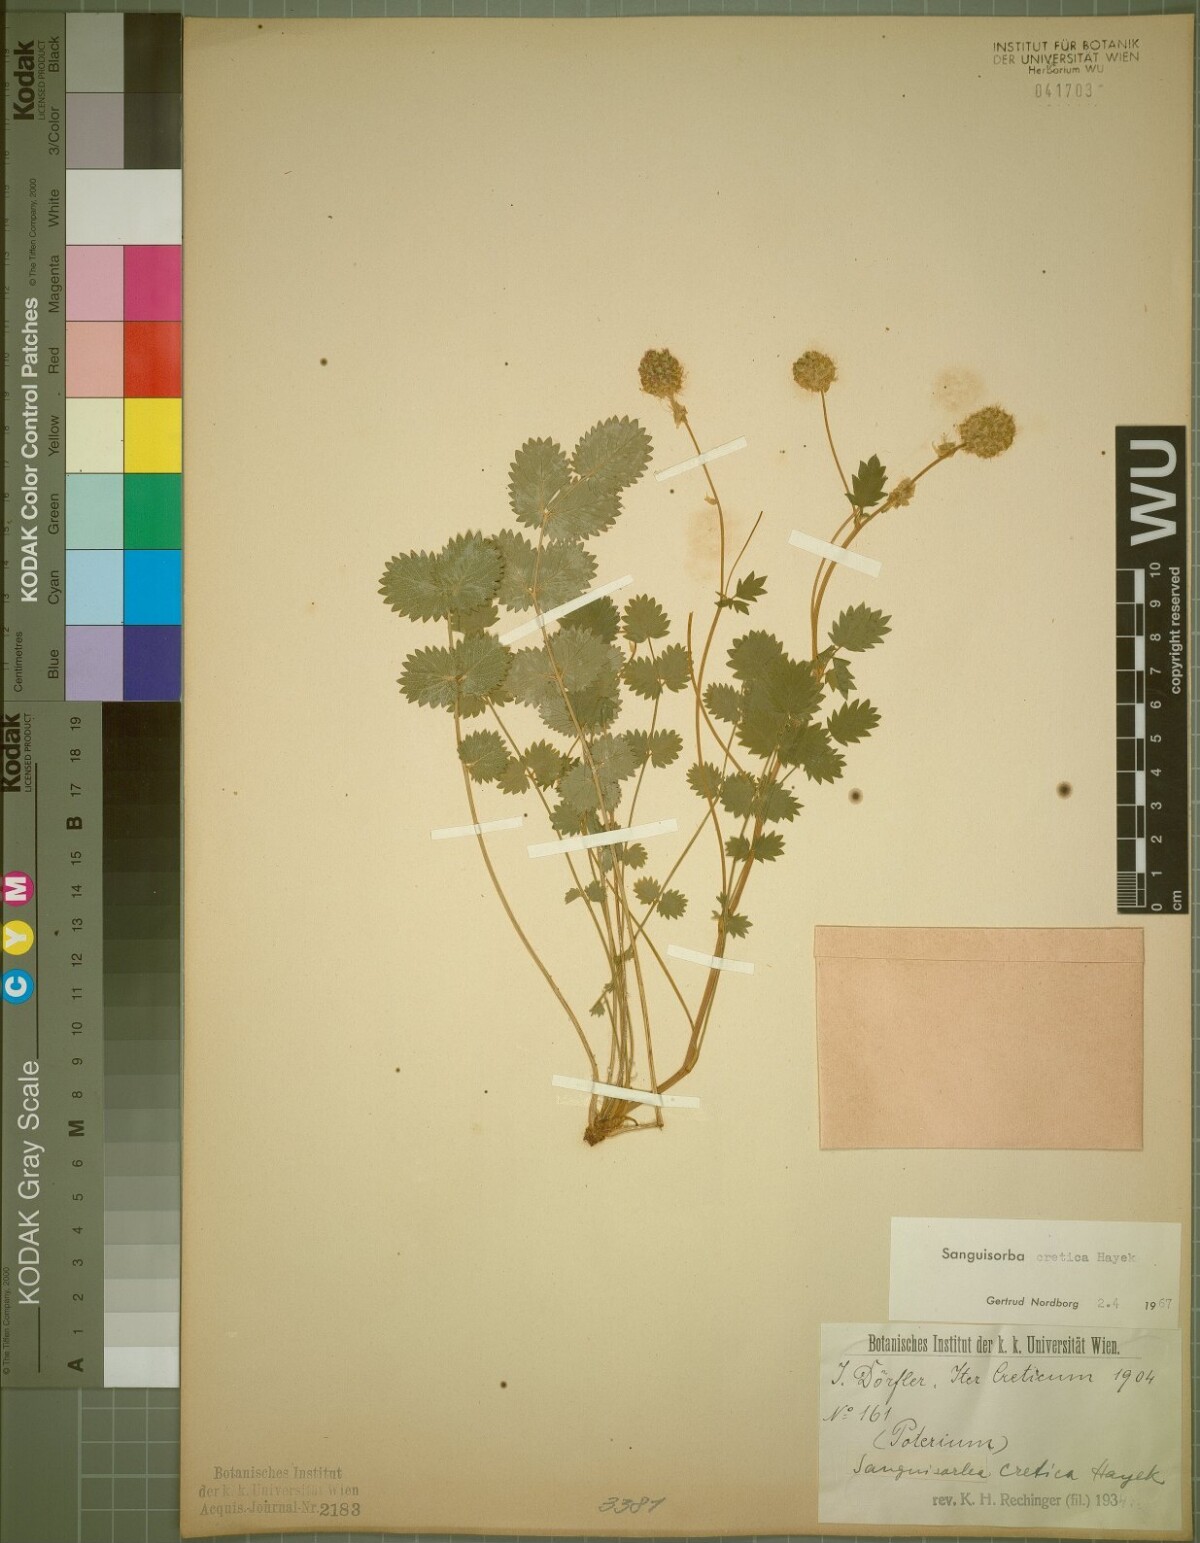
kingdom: Plantae
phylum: Tracheophyta
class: Magnoliopsida
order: Rosales
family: Rosaceae
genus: Poterium
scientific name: Poterium creticum
